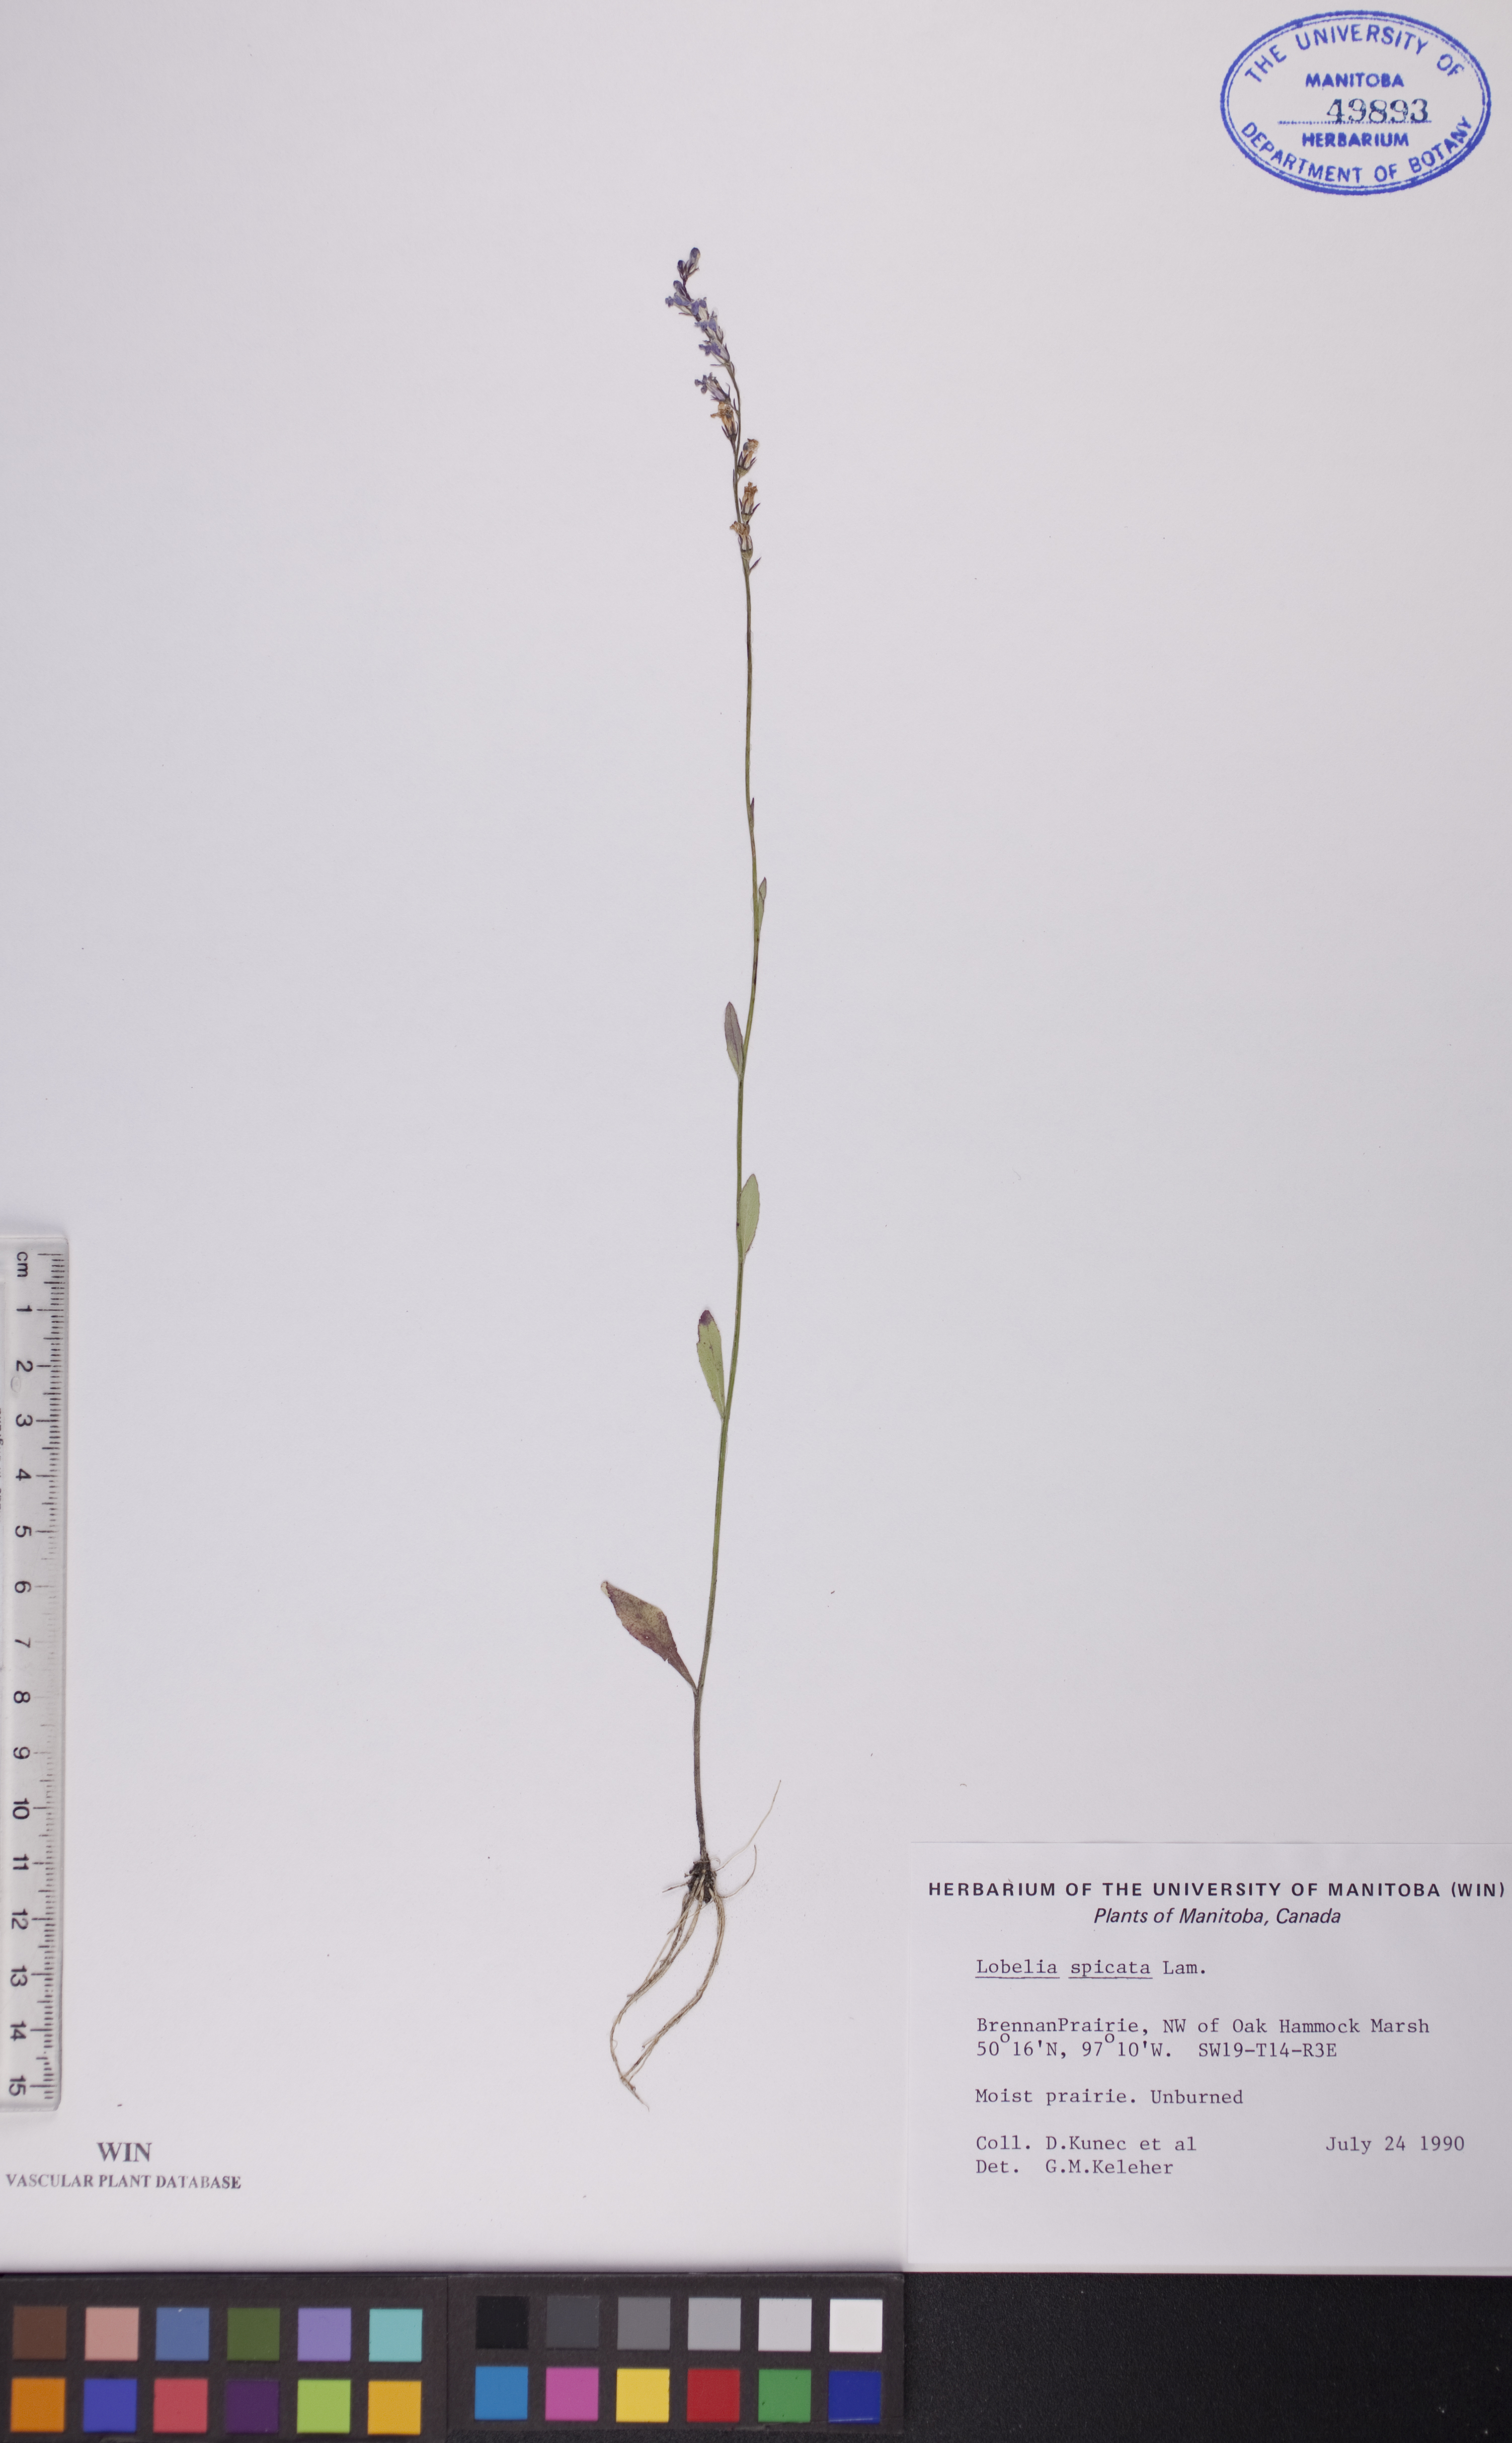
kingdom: Plantae
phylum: Tracheophyta
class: Magnoliopsida
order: Asterales
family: Campanulaceae
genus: Lobelia
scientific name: Lobelia spicata
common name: Pale-spike lobelia
